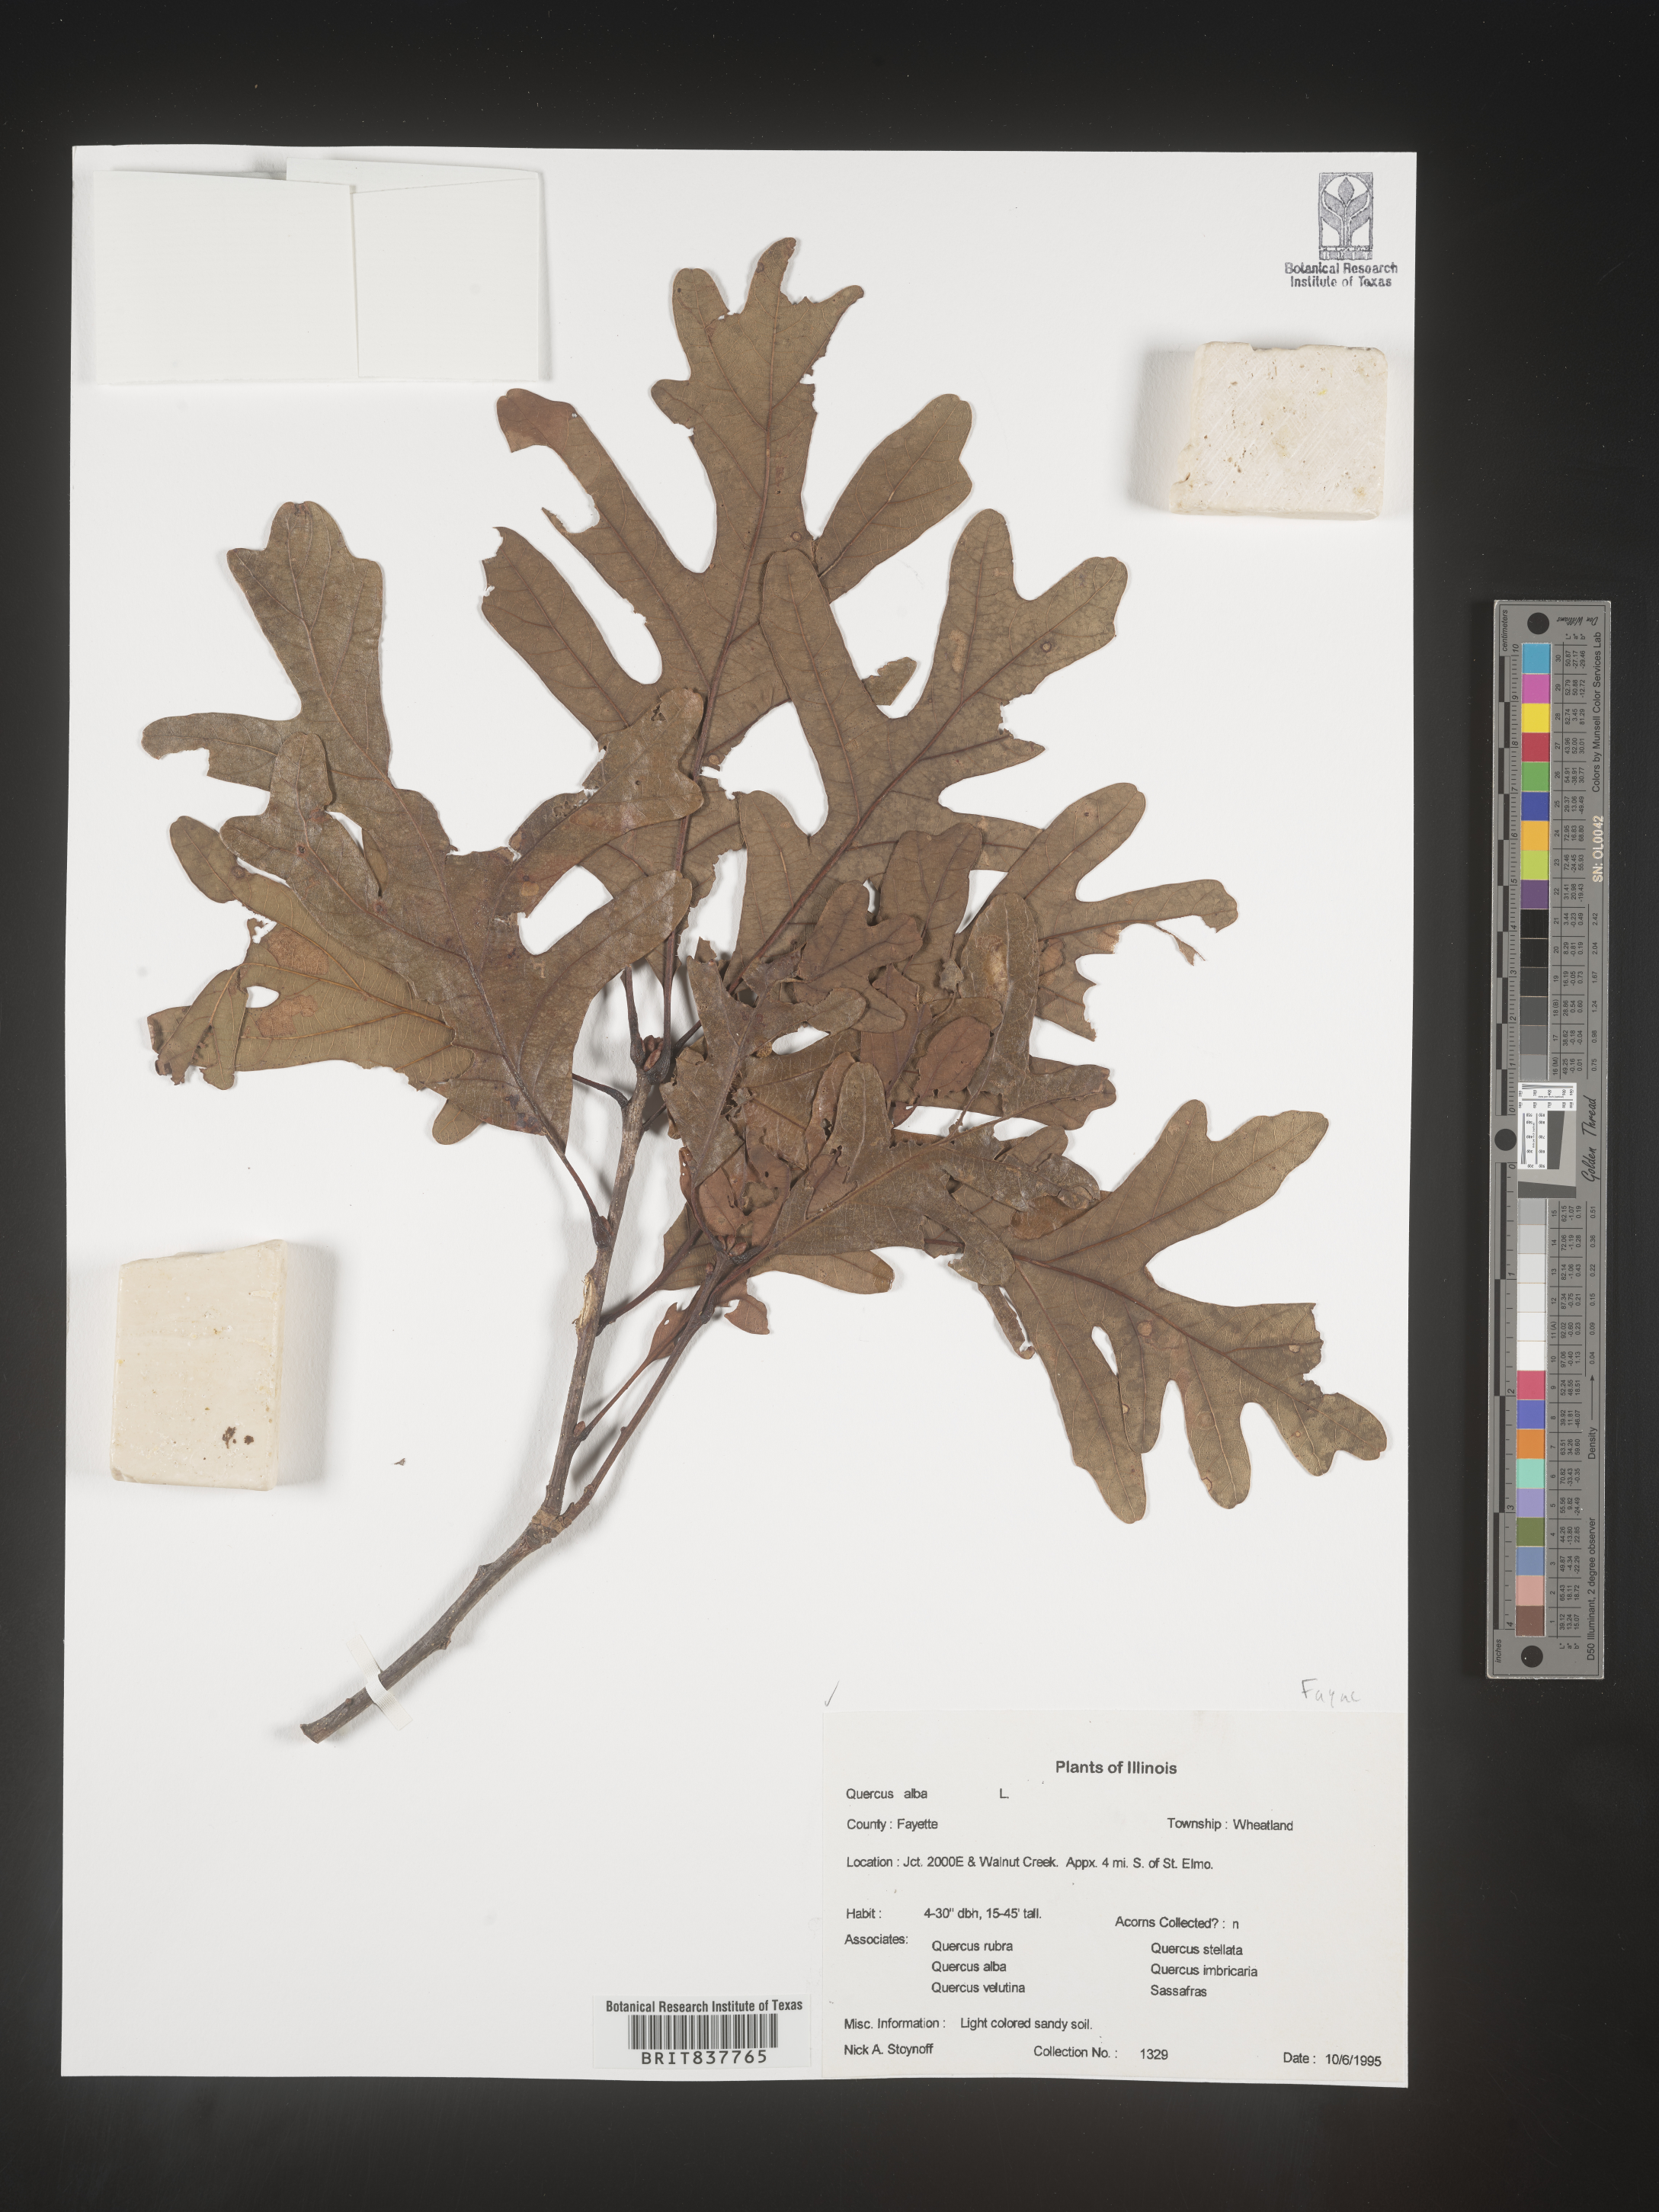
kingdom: Plantae
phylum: Tracheophyta
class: Magnoliopsida
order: Fagales
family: Fagaceae
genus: Quercus
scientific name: Quercus alba
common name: White oak
